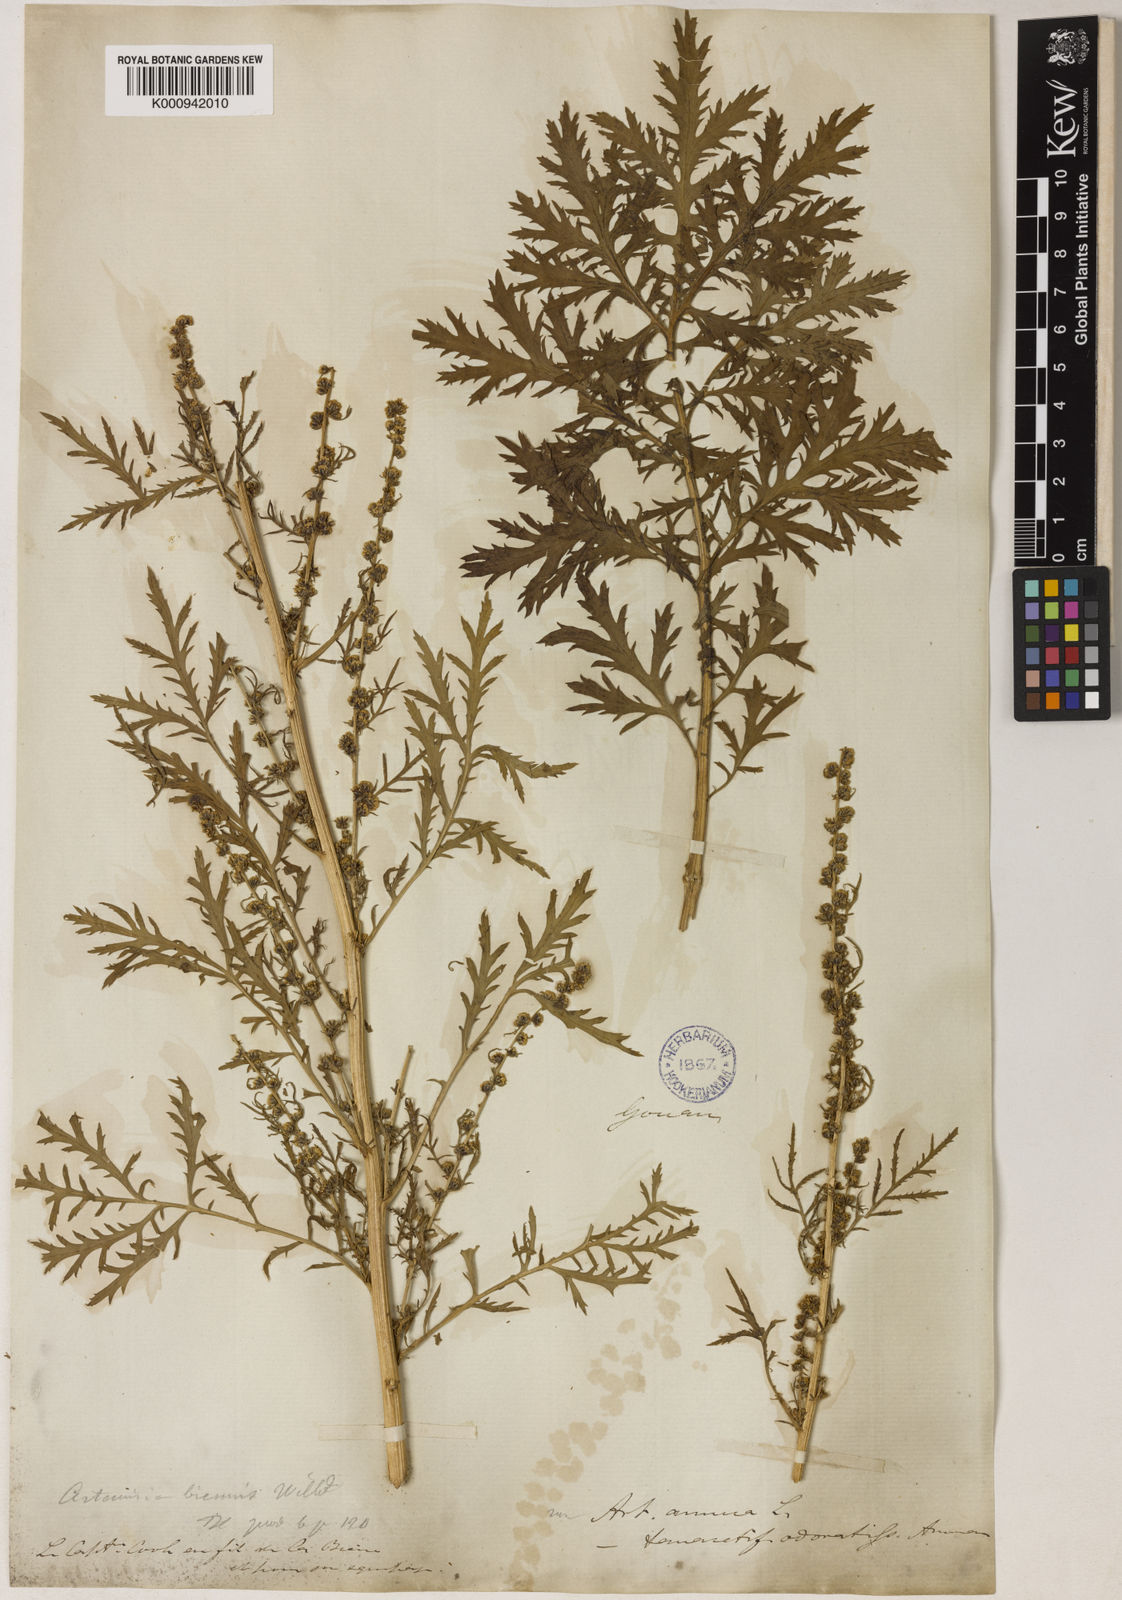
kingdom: Plantae
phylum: Tracheophyta
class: Magnoliopsida
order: Asterales
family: Asteraceae
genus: Artemisia
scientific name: Artemisia biennis
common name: Biennial wormwood
